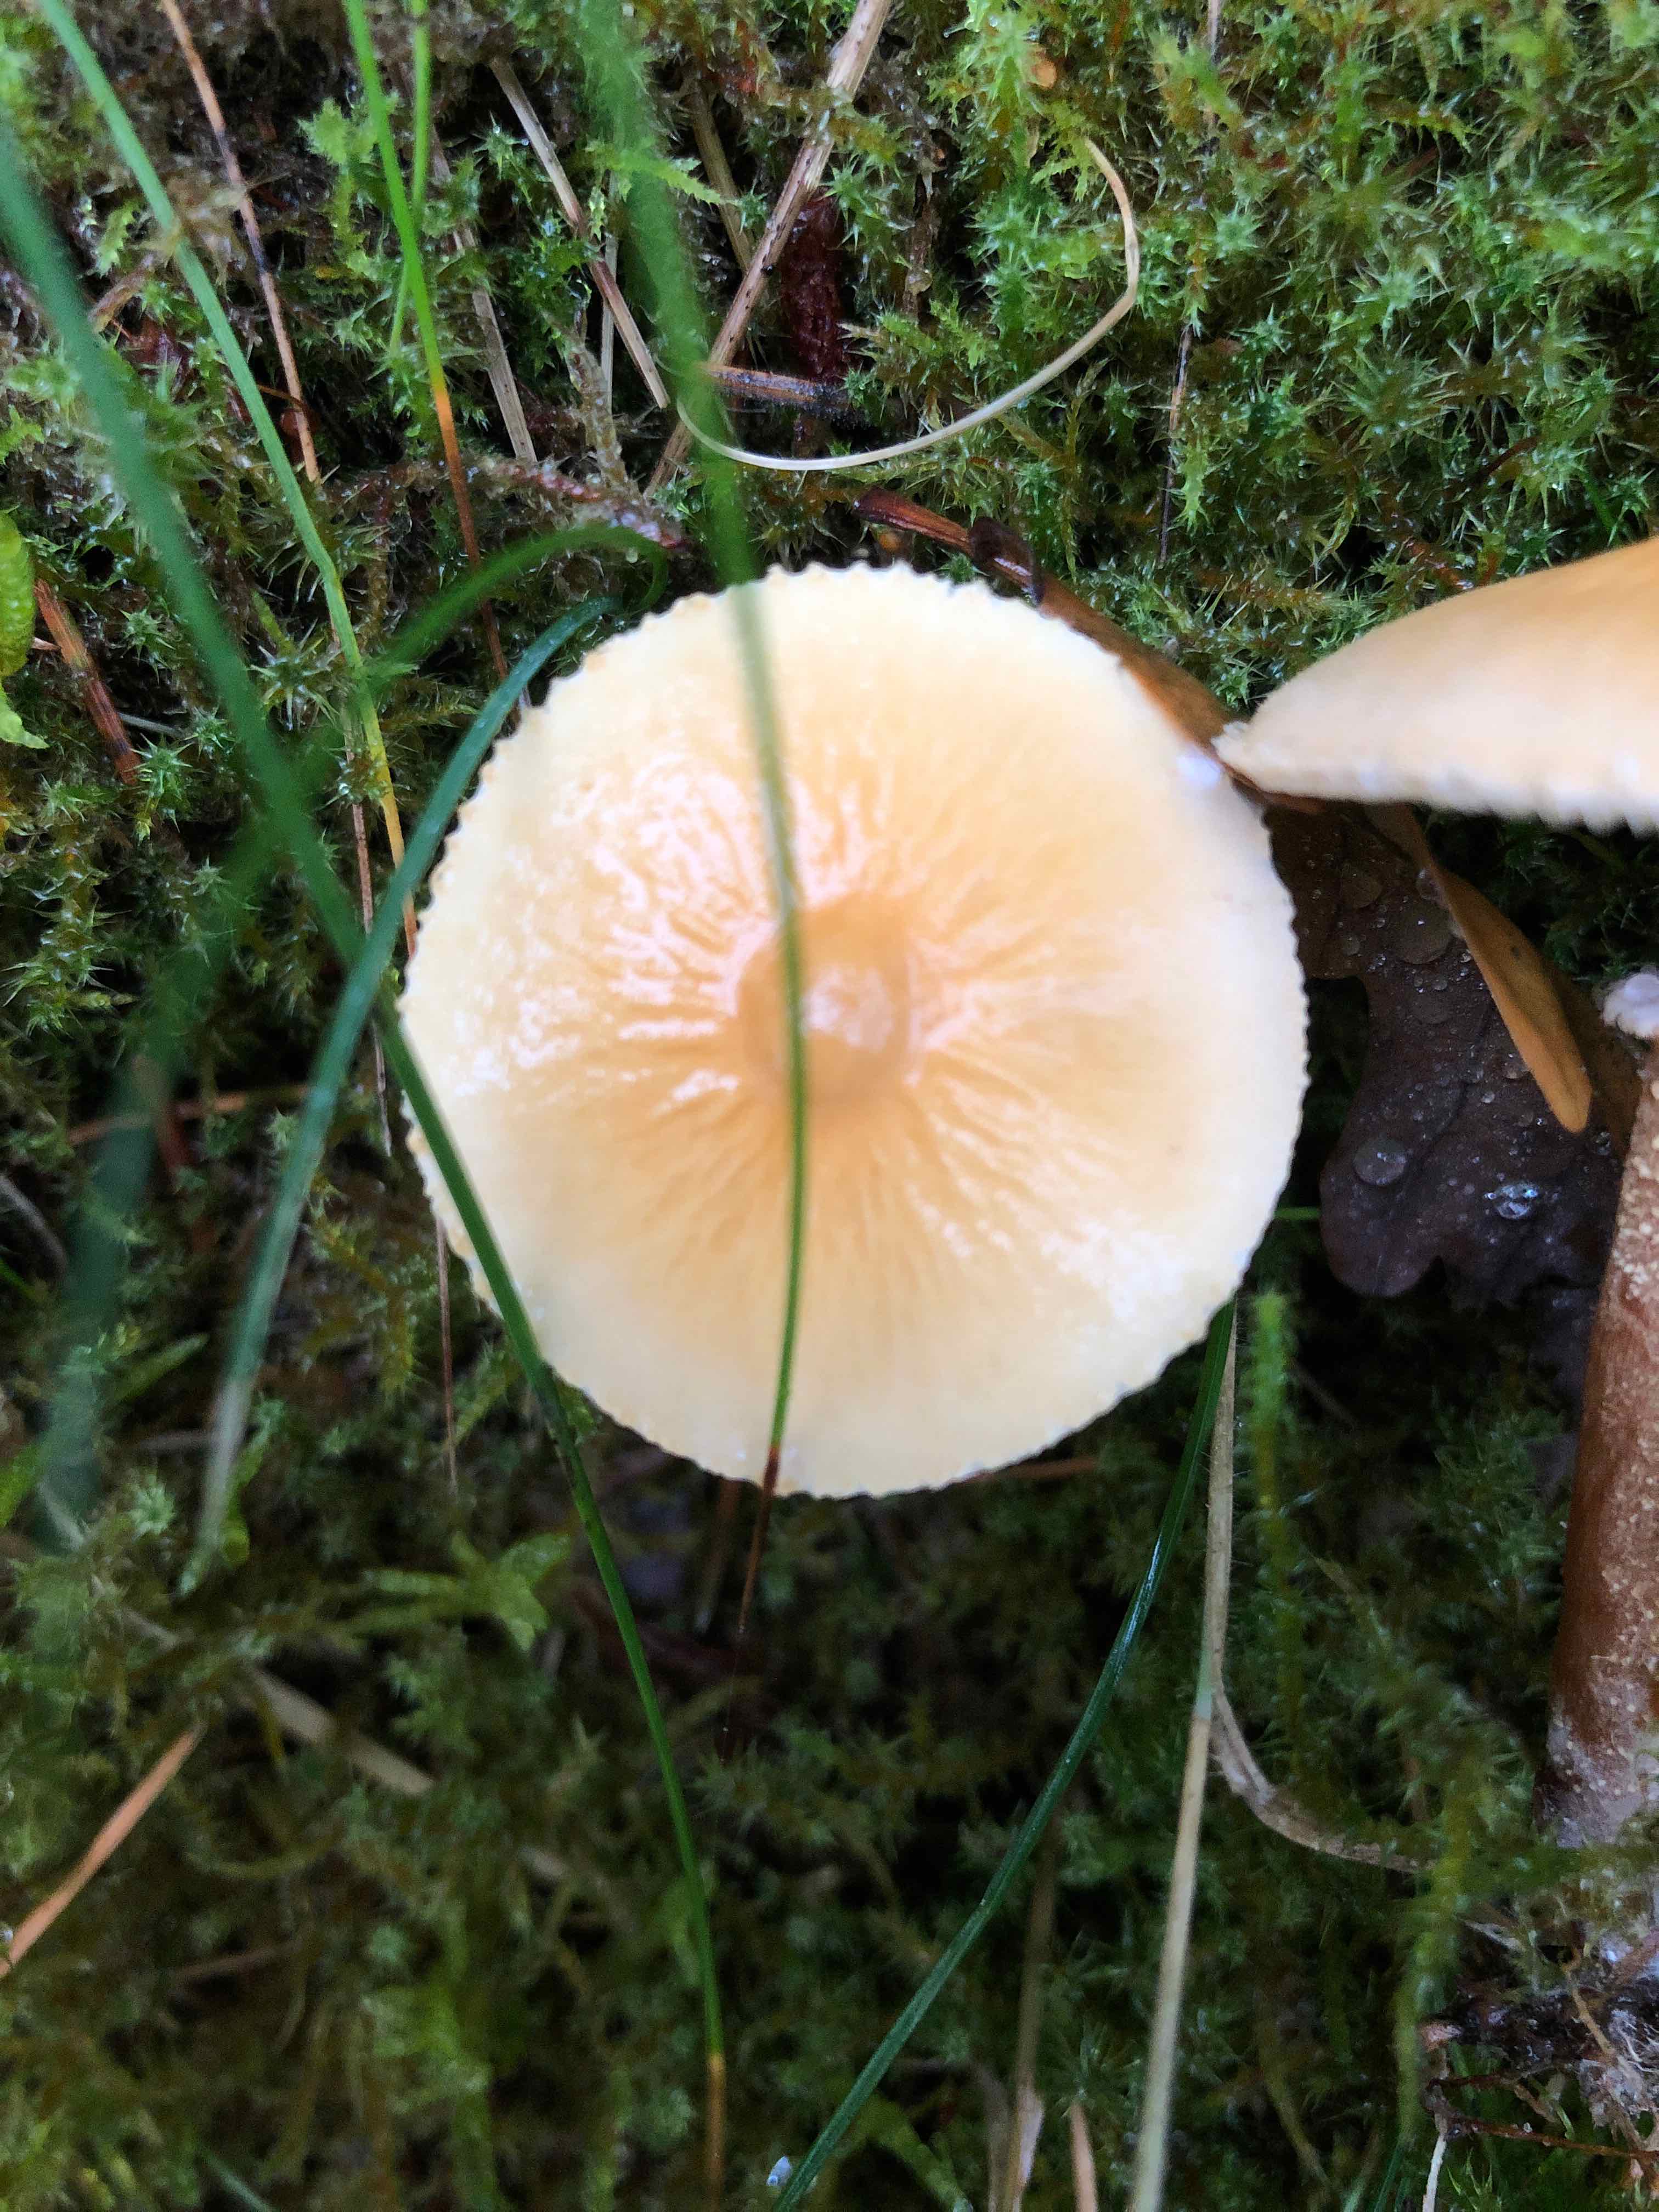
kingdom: Fungi
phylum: Basidiomycota
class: Agaricomycetes
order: Agaricales
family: Tricholomataceae
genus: Cystoderma
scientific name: Cystoderma amianthinum
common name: okkergul grynhat
